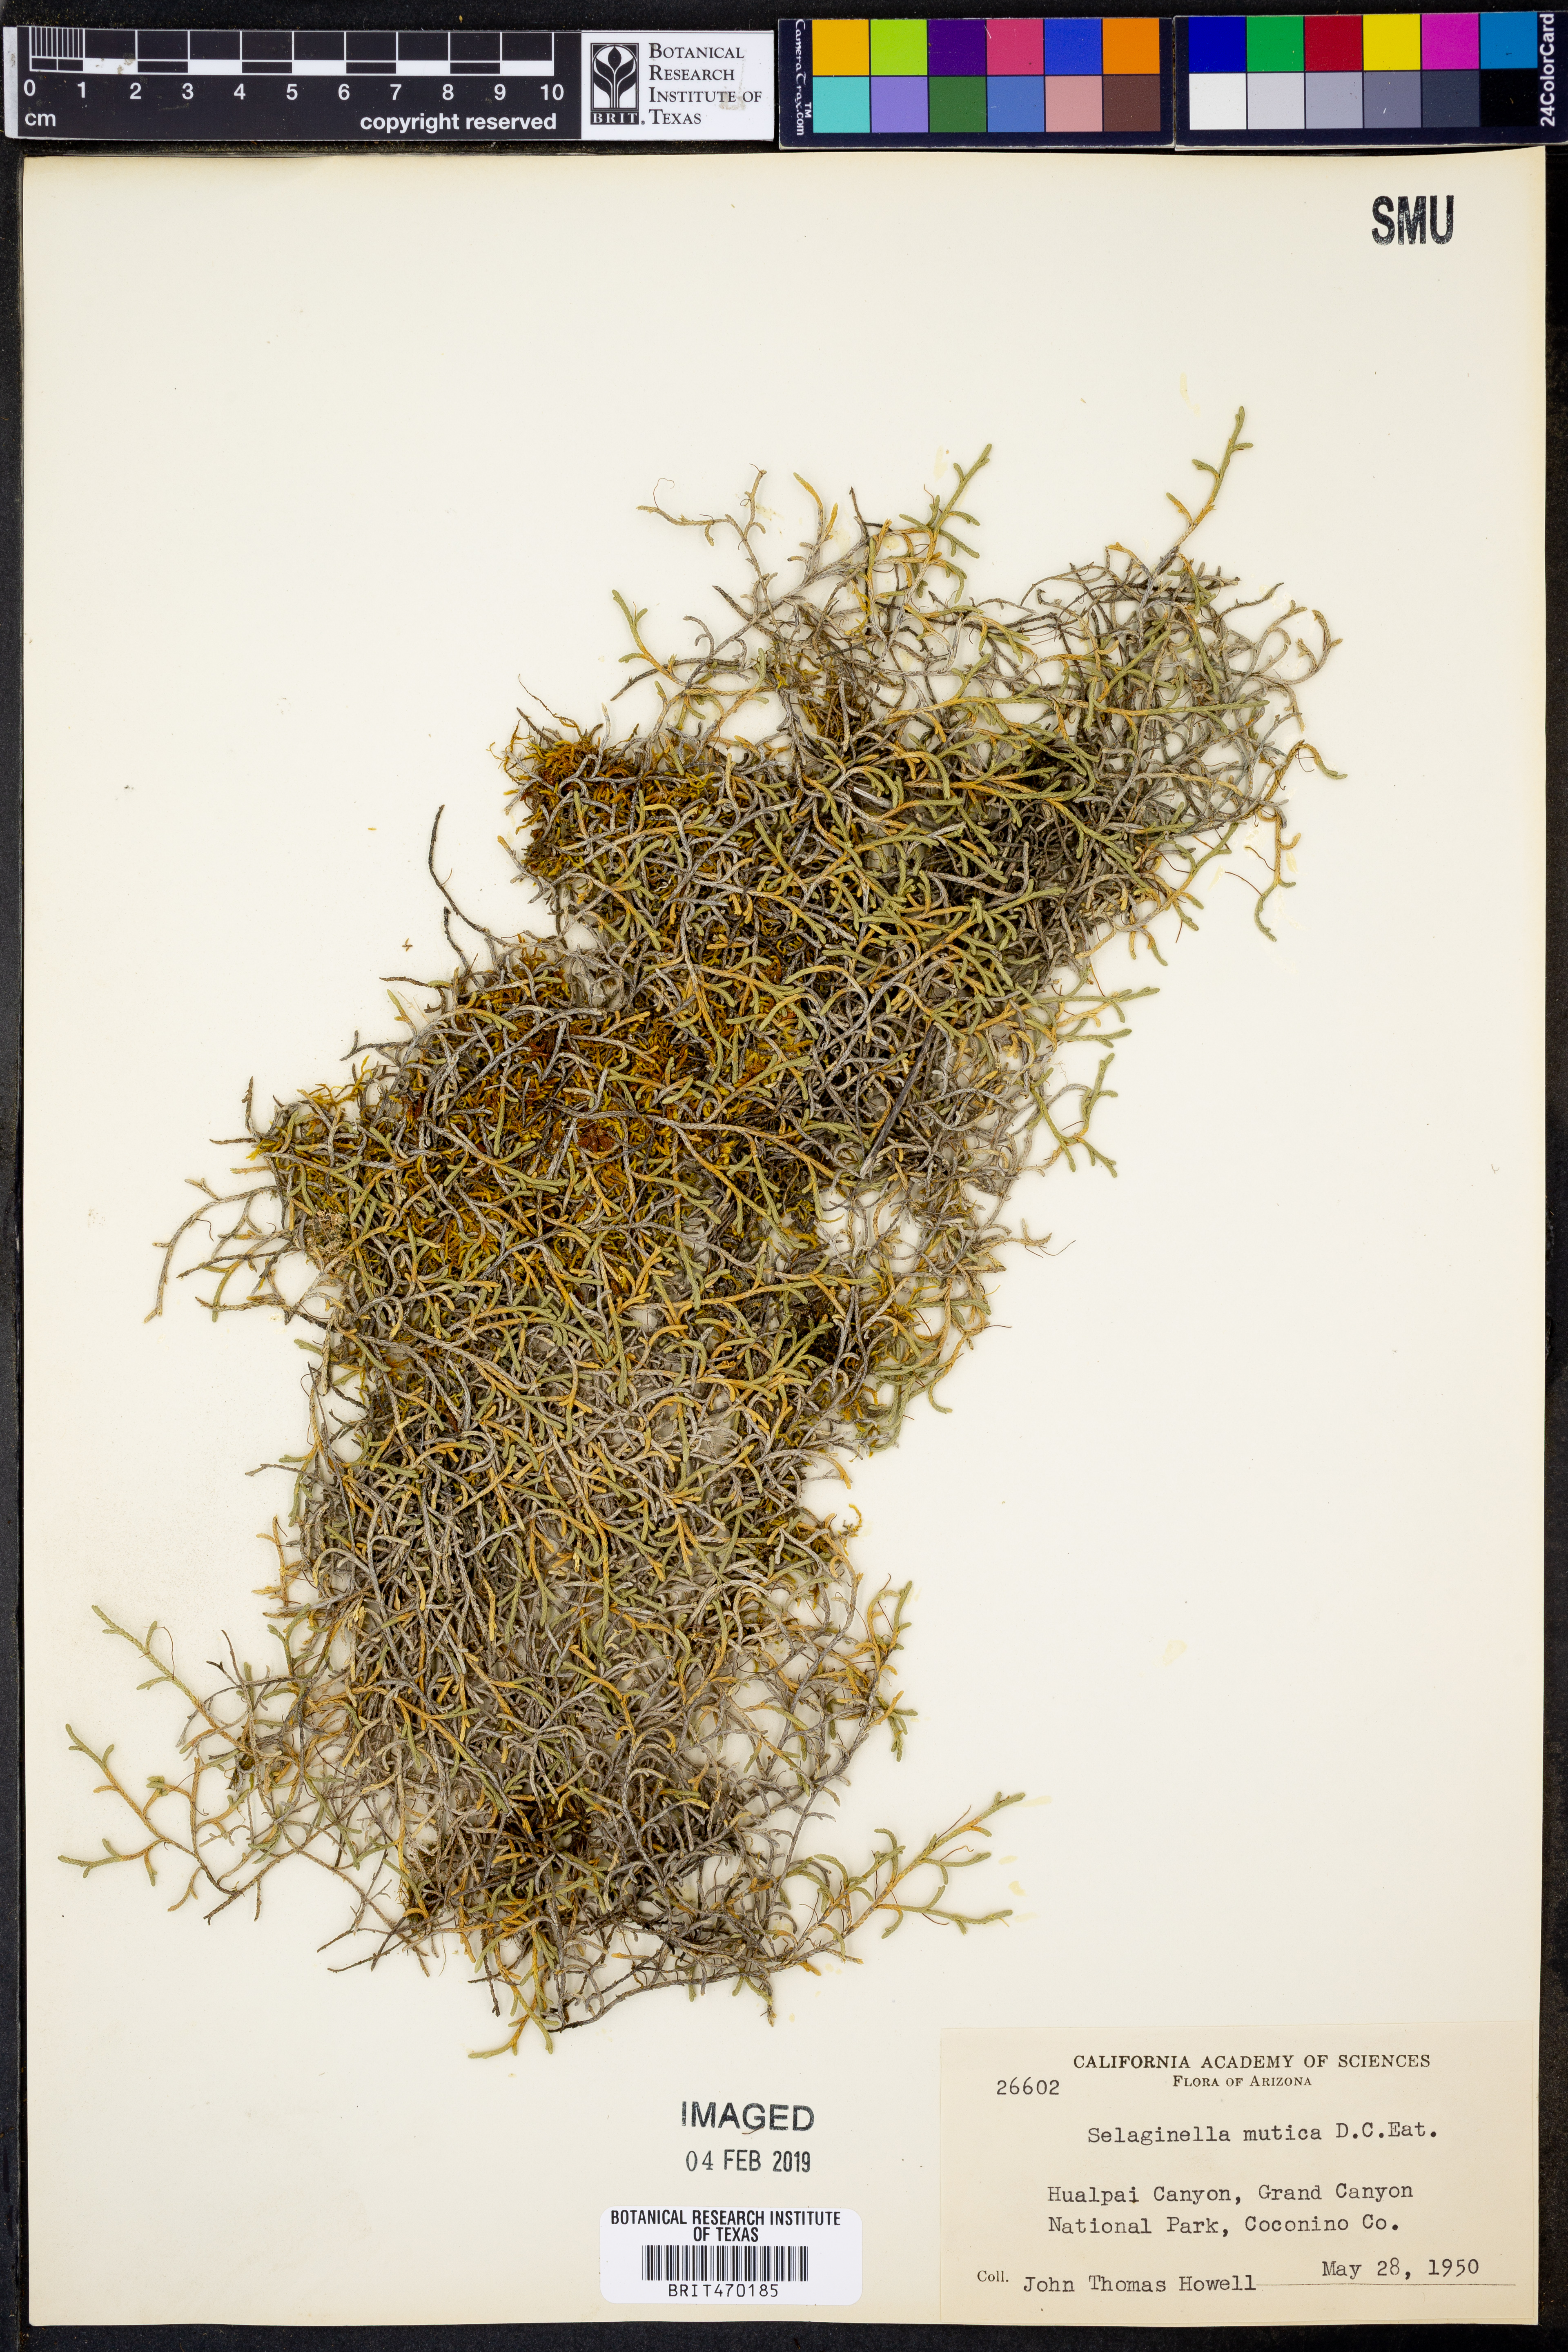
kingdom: Plantae
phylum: Tracheophyta
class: Lycopodiopsida
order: Selaginellales
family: Selaginellaceae
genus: Selaginella
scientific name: Selaginella mutica
